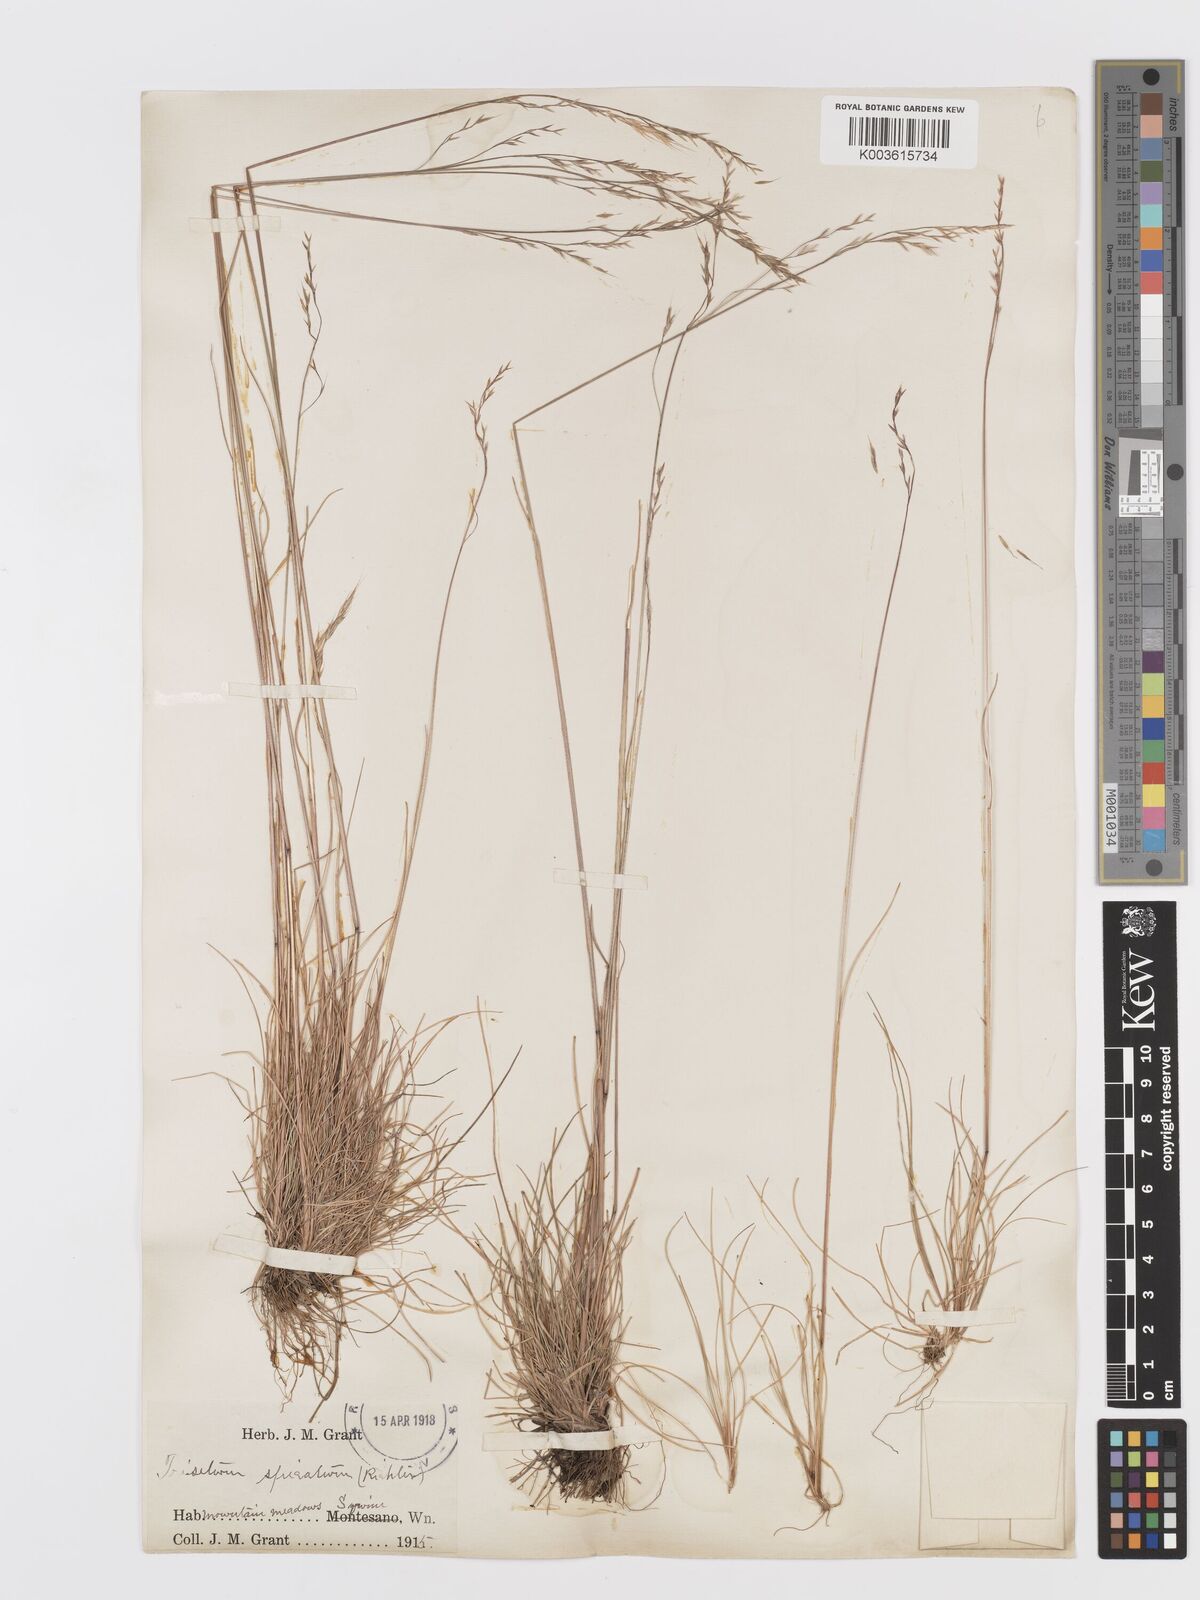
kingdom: Plantae
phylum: Tracheophyta
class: Liliopsida
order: Poales
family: Poaceae
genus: Koeleria
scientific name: Koeleria spicata
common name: Mountain trisetum
